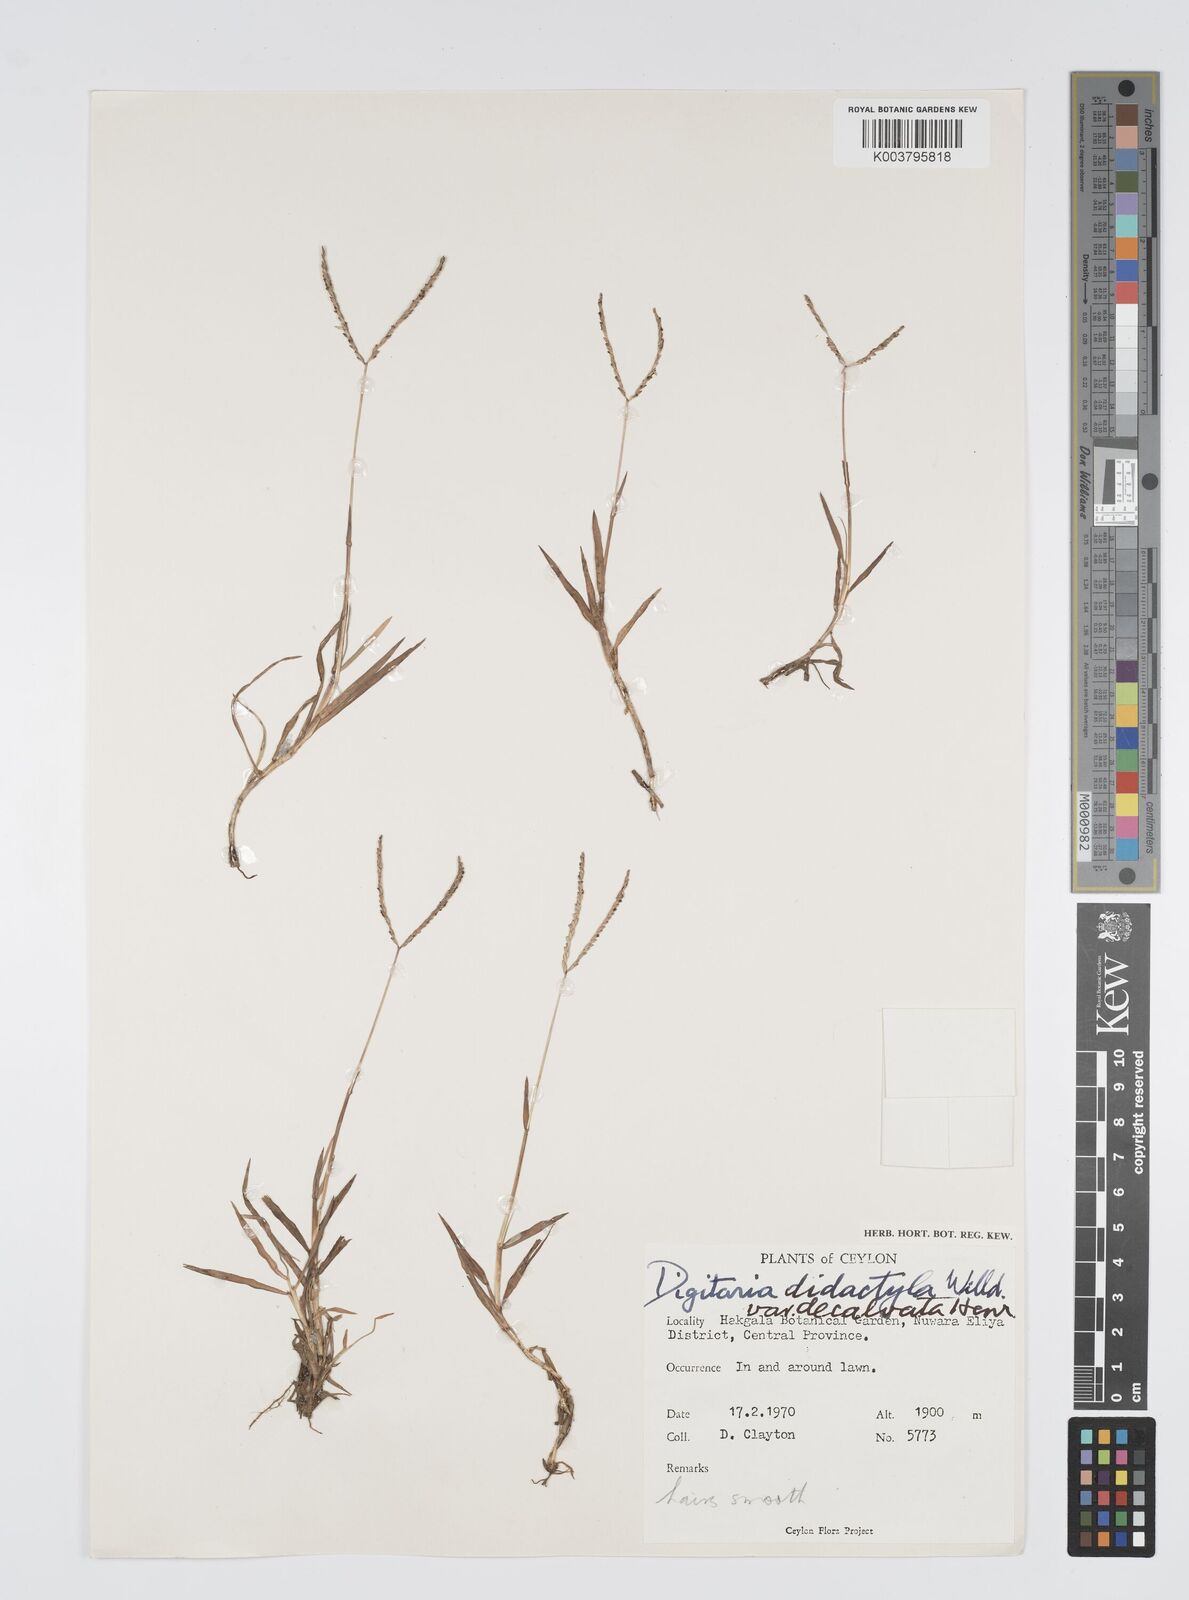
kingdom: Plantae
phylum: Tracheophyta
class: Liliopsida
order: Poales
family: Poaceae
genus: Digitaria
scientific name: Digitaria didactyla
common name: Blue couch
